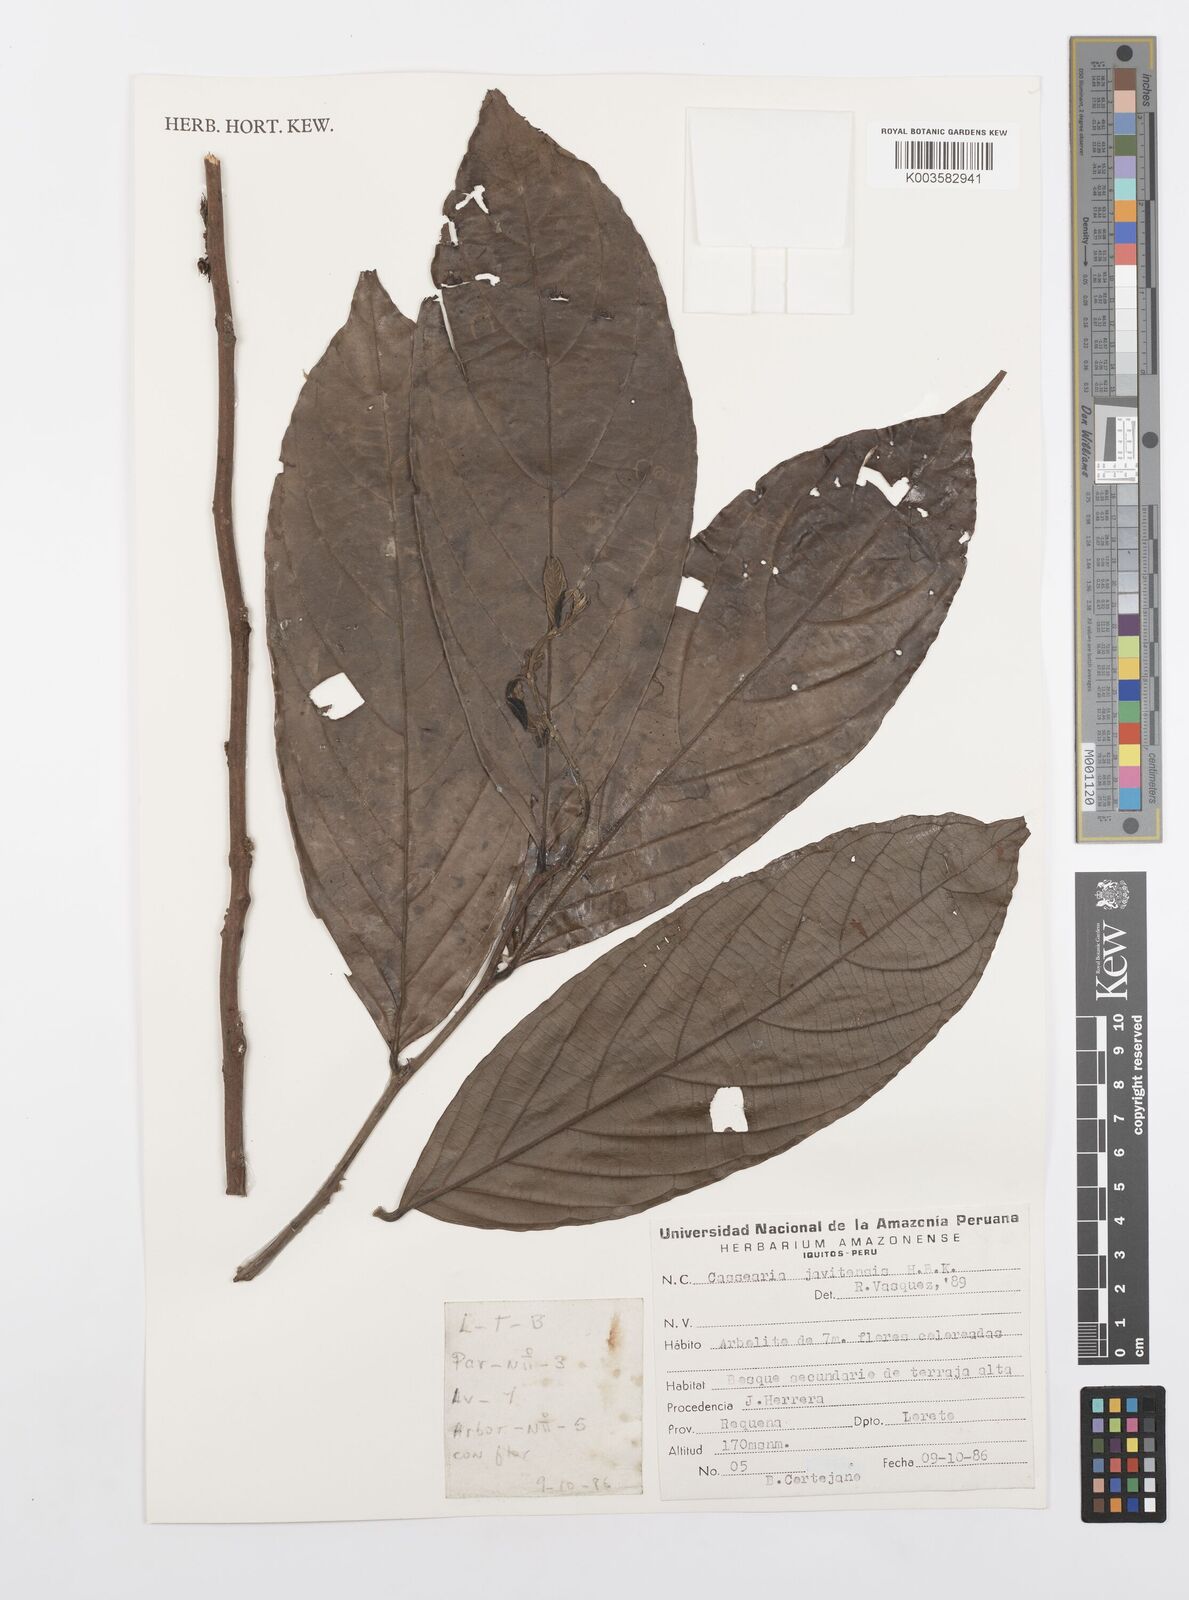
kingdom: Plantae
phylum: Tracheophyta
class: Magnoliopsida
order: Malpighiales
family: Salicaceae
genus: Piparea
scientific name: Piparea multiflora
